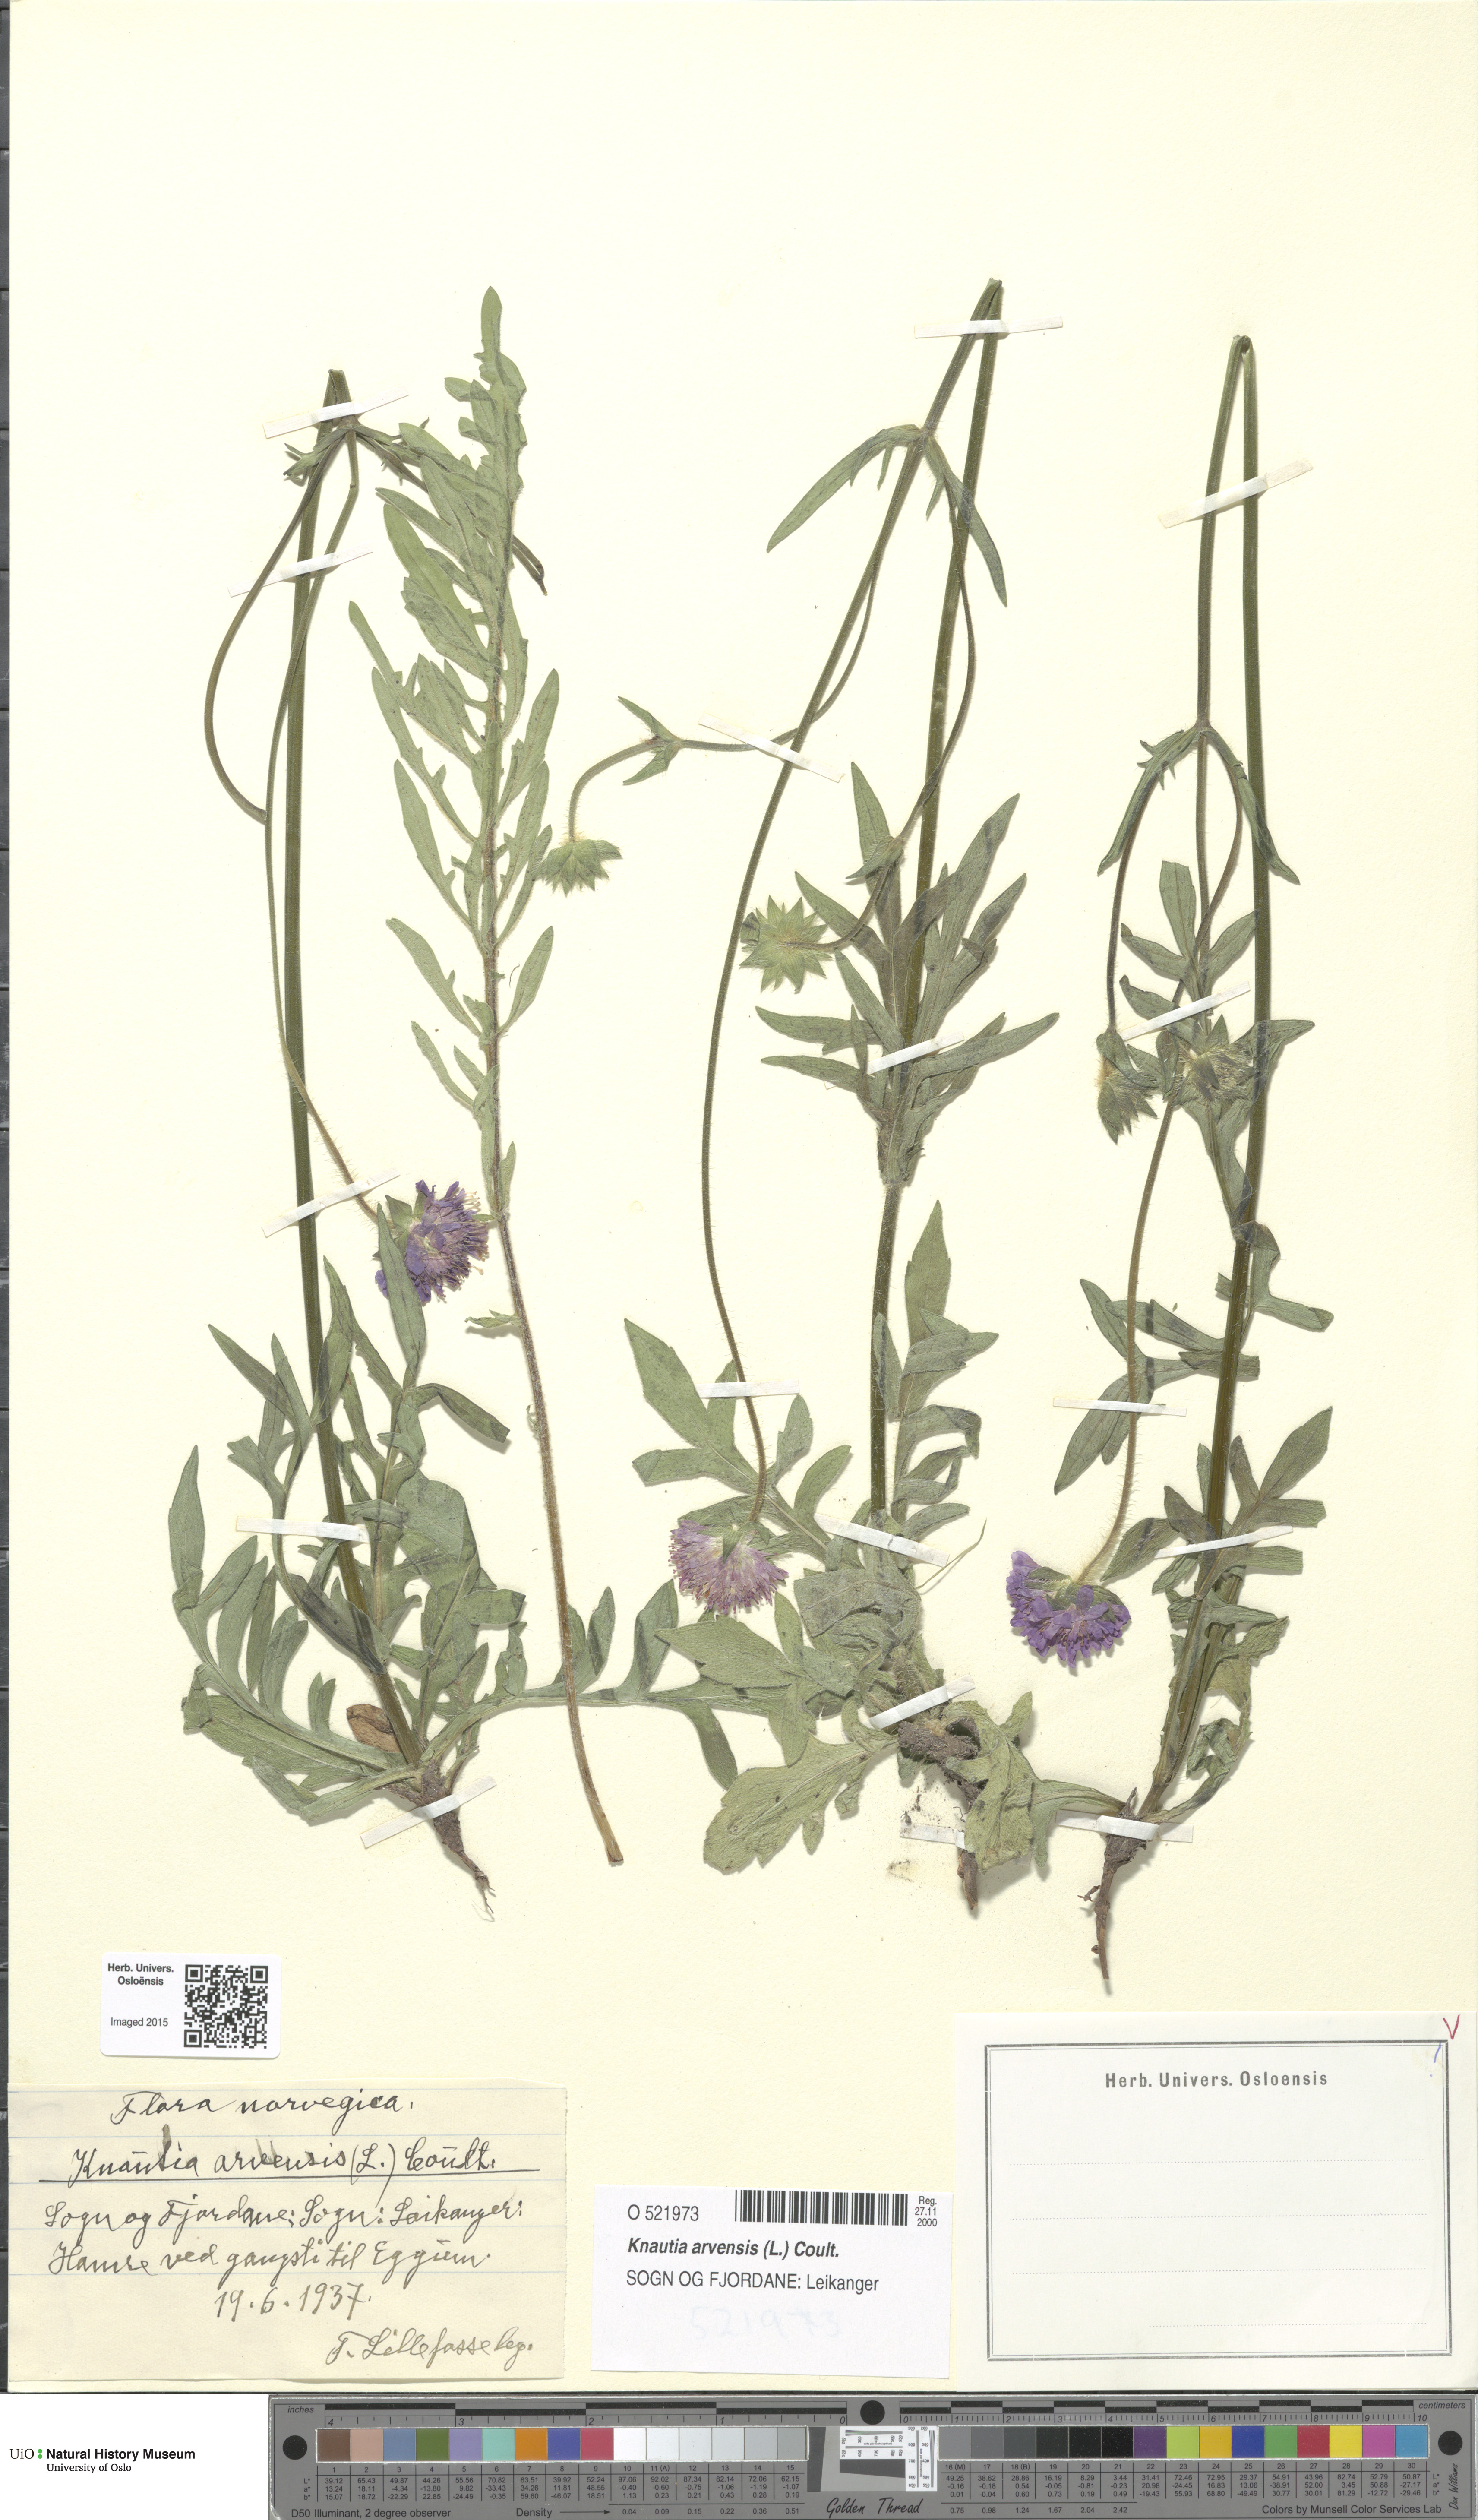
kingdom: Plantae
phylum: Tracheophyta
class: Magnoliopsida
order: Dipsacales
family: Caprifoliaceae
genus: Knautia
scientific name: Knautia arvensis
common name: Field scabiosa
